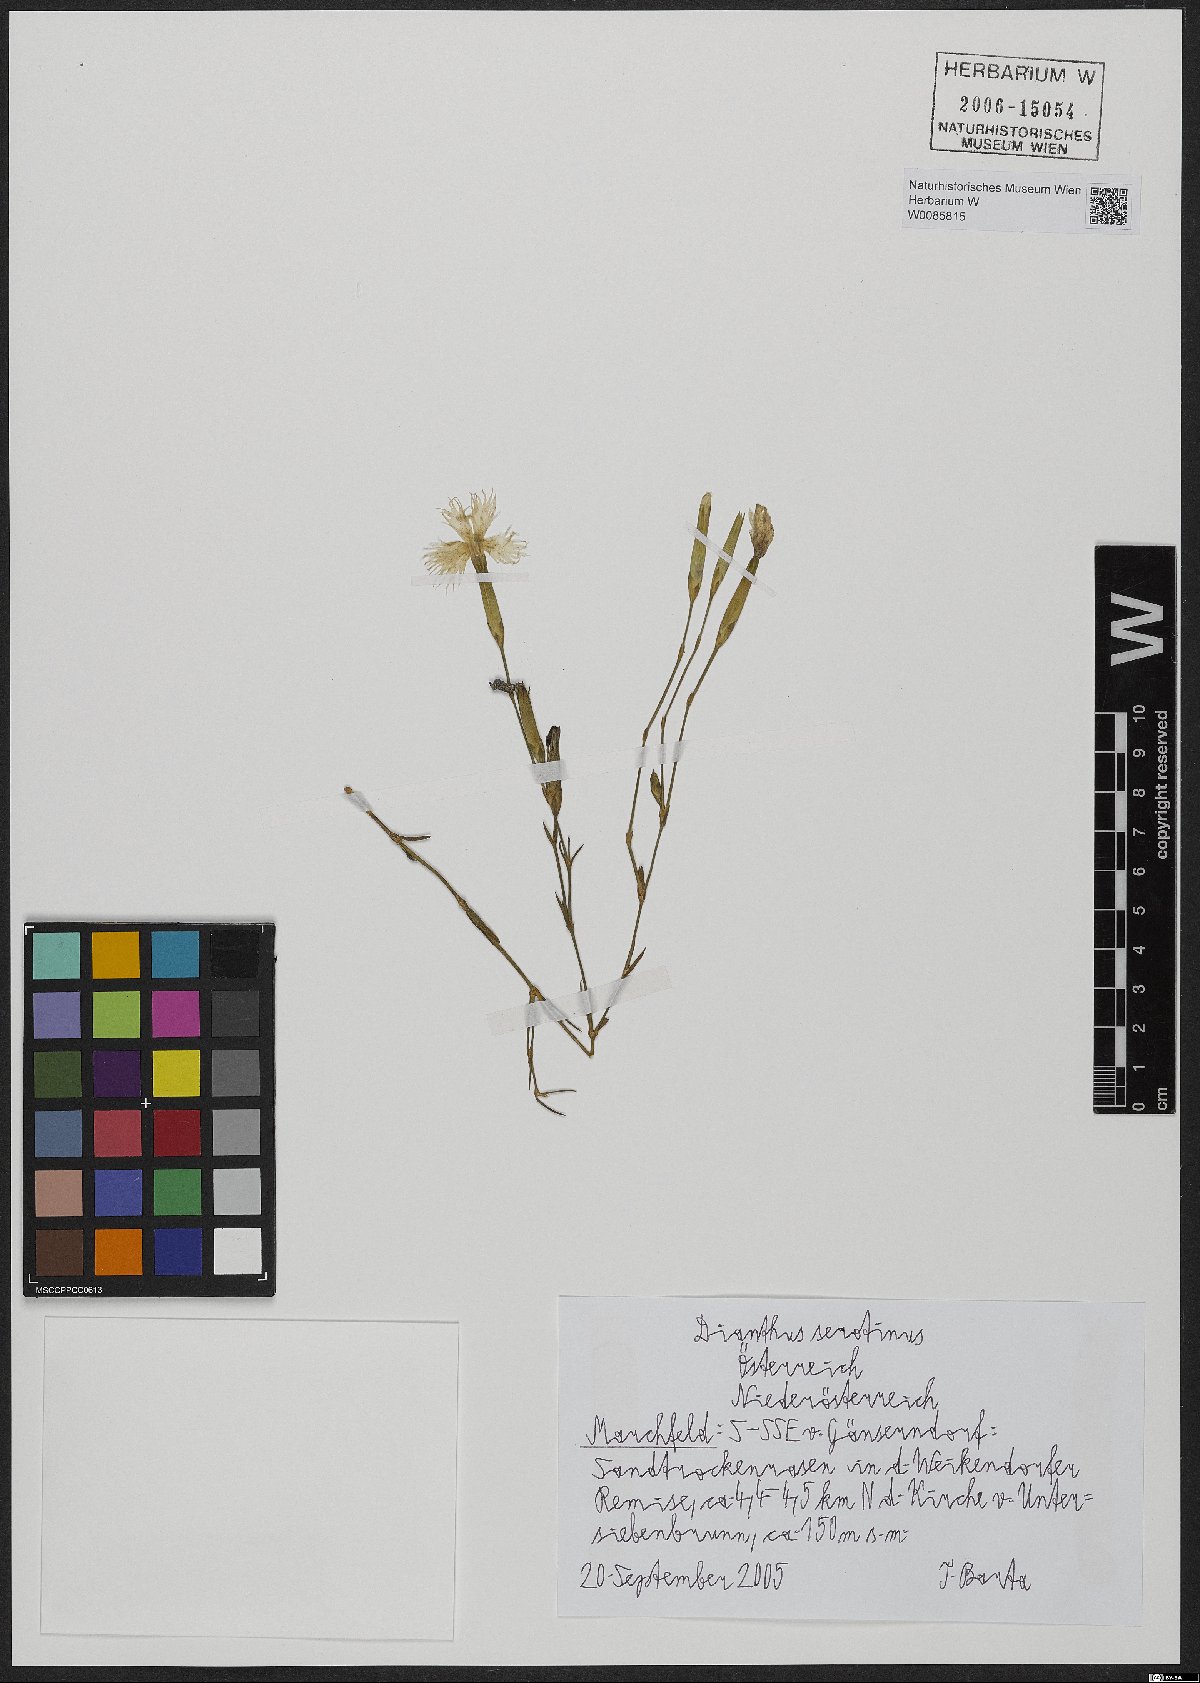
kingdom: Plantae
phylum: Tracheophyta
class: Magnoliopsida
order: Caryophyllales
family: Caryophyllaceae
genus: Dianthus
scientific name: Dianthus serotinus
